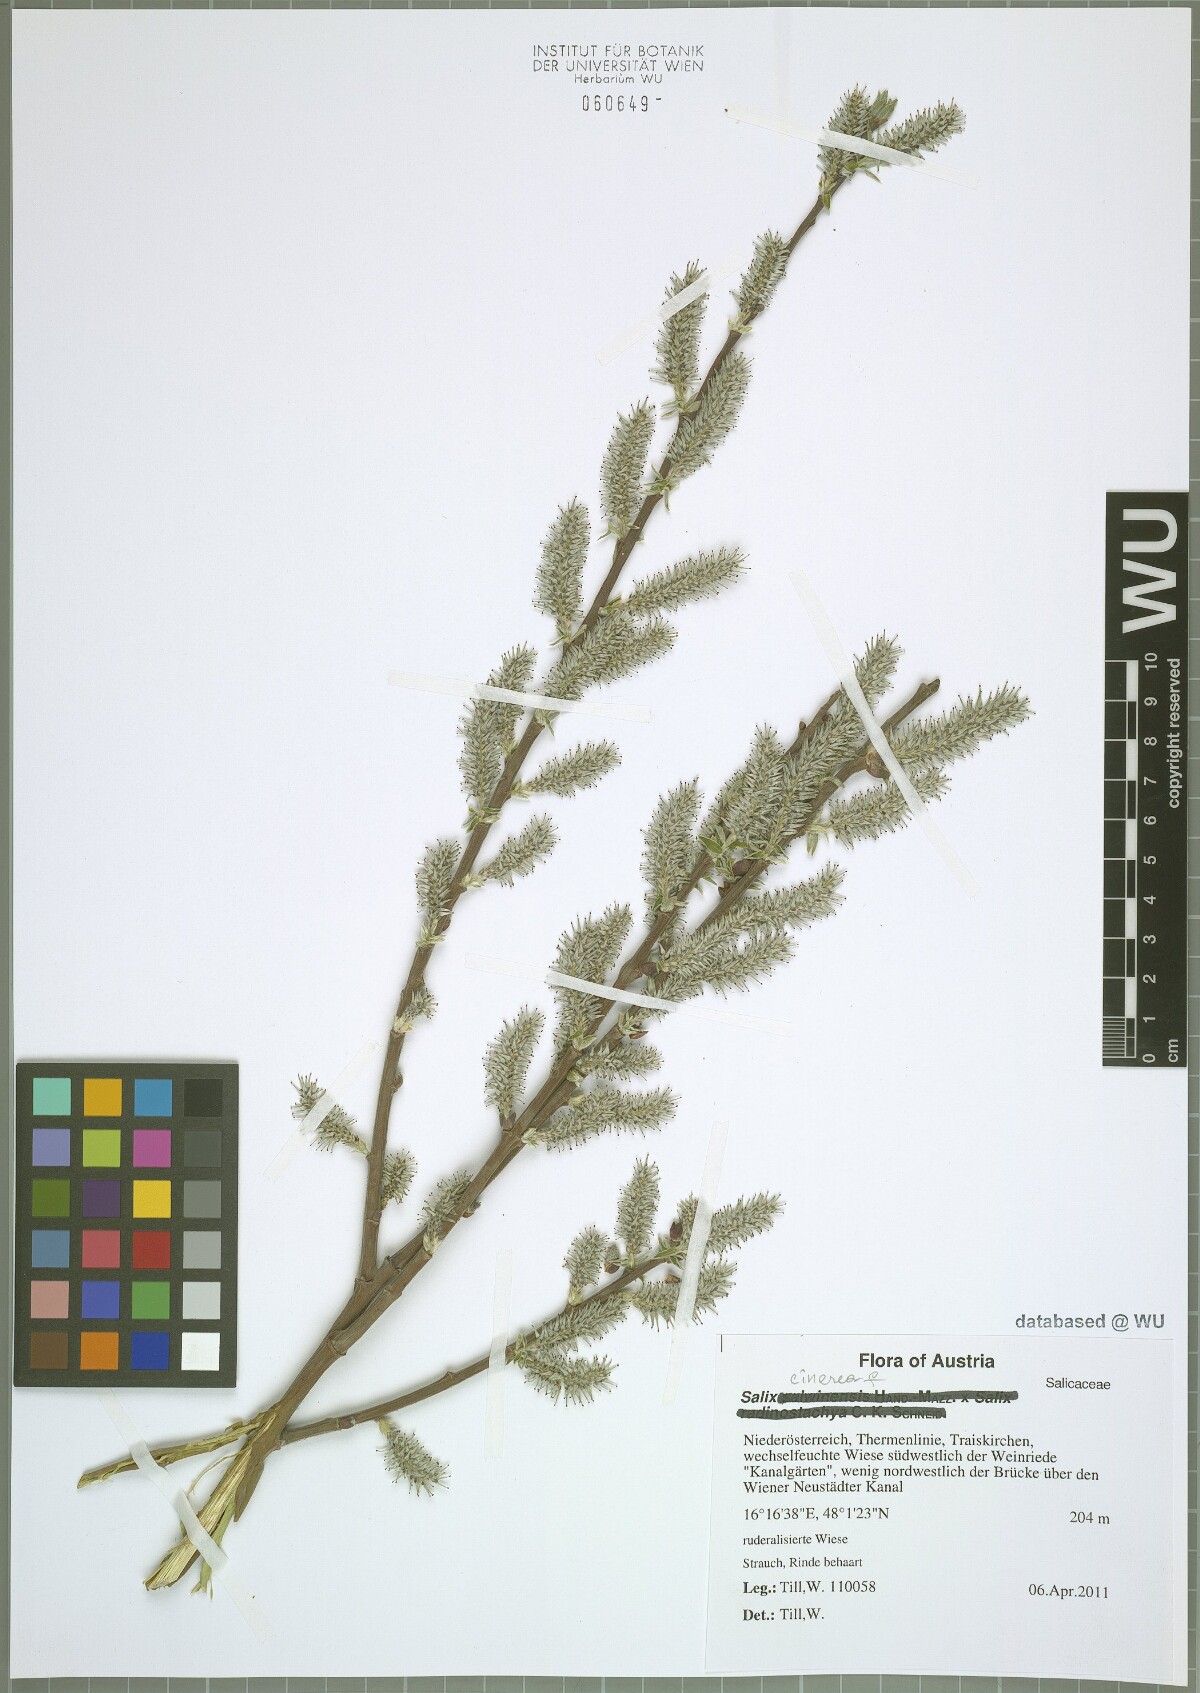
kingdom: Plantae
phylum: Tracheophyta
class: Magnoliopsida
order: Malpighiales
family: Salicaceae
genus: Salix
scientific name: Salix cinerea
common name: Common sallow
